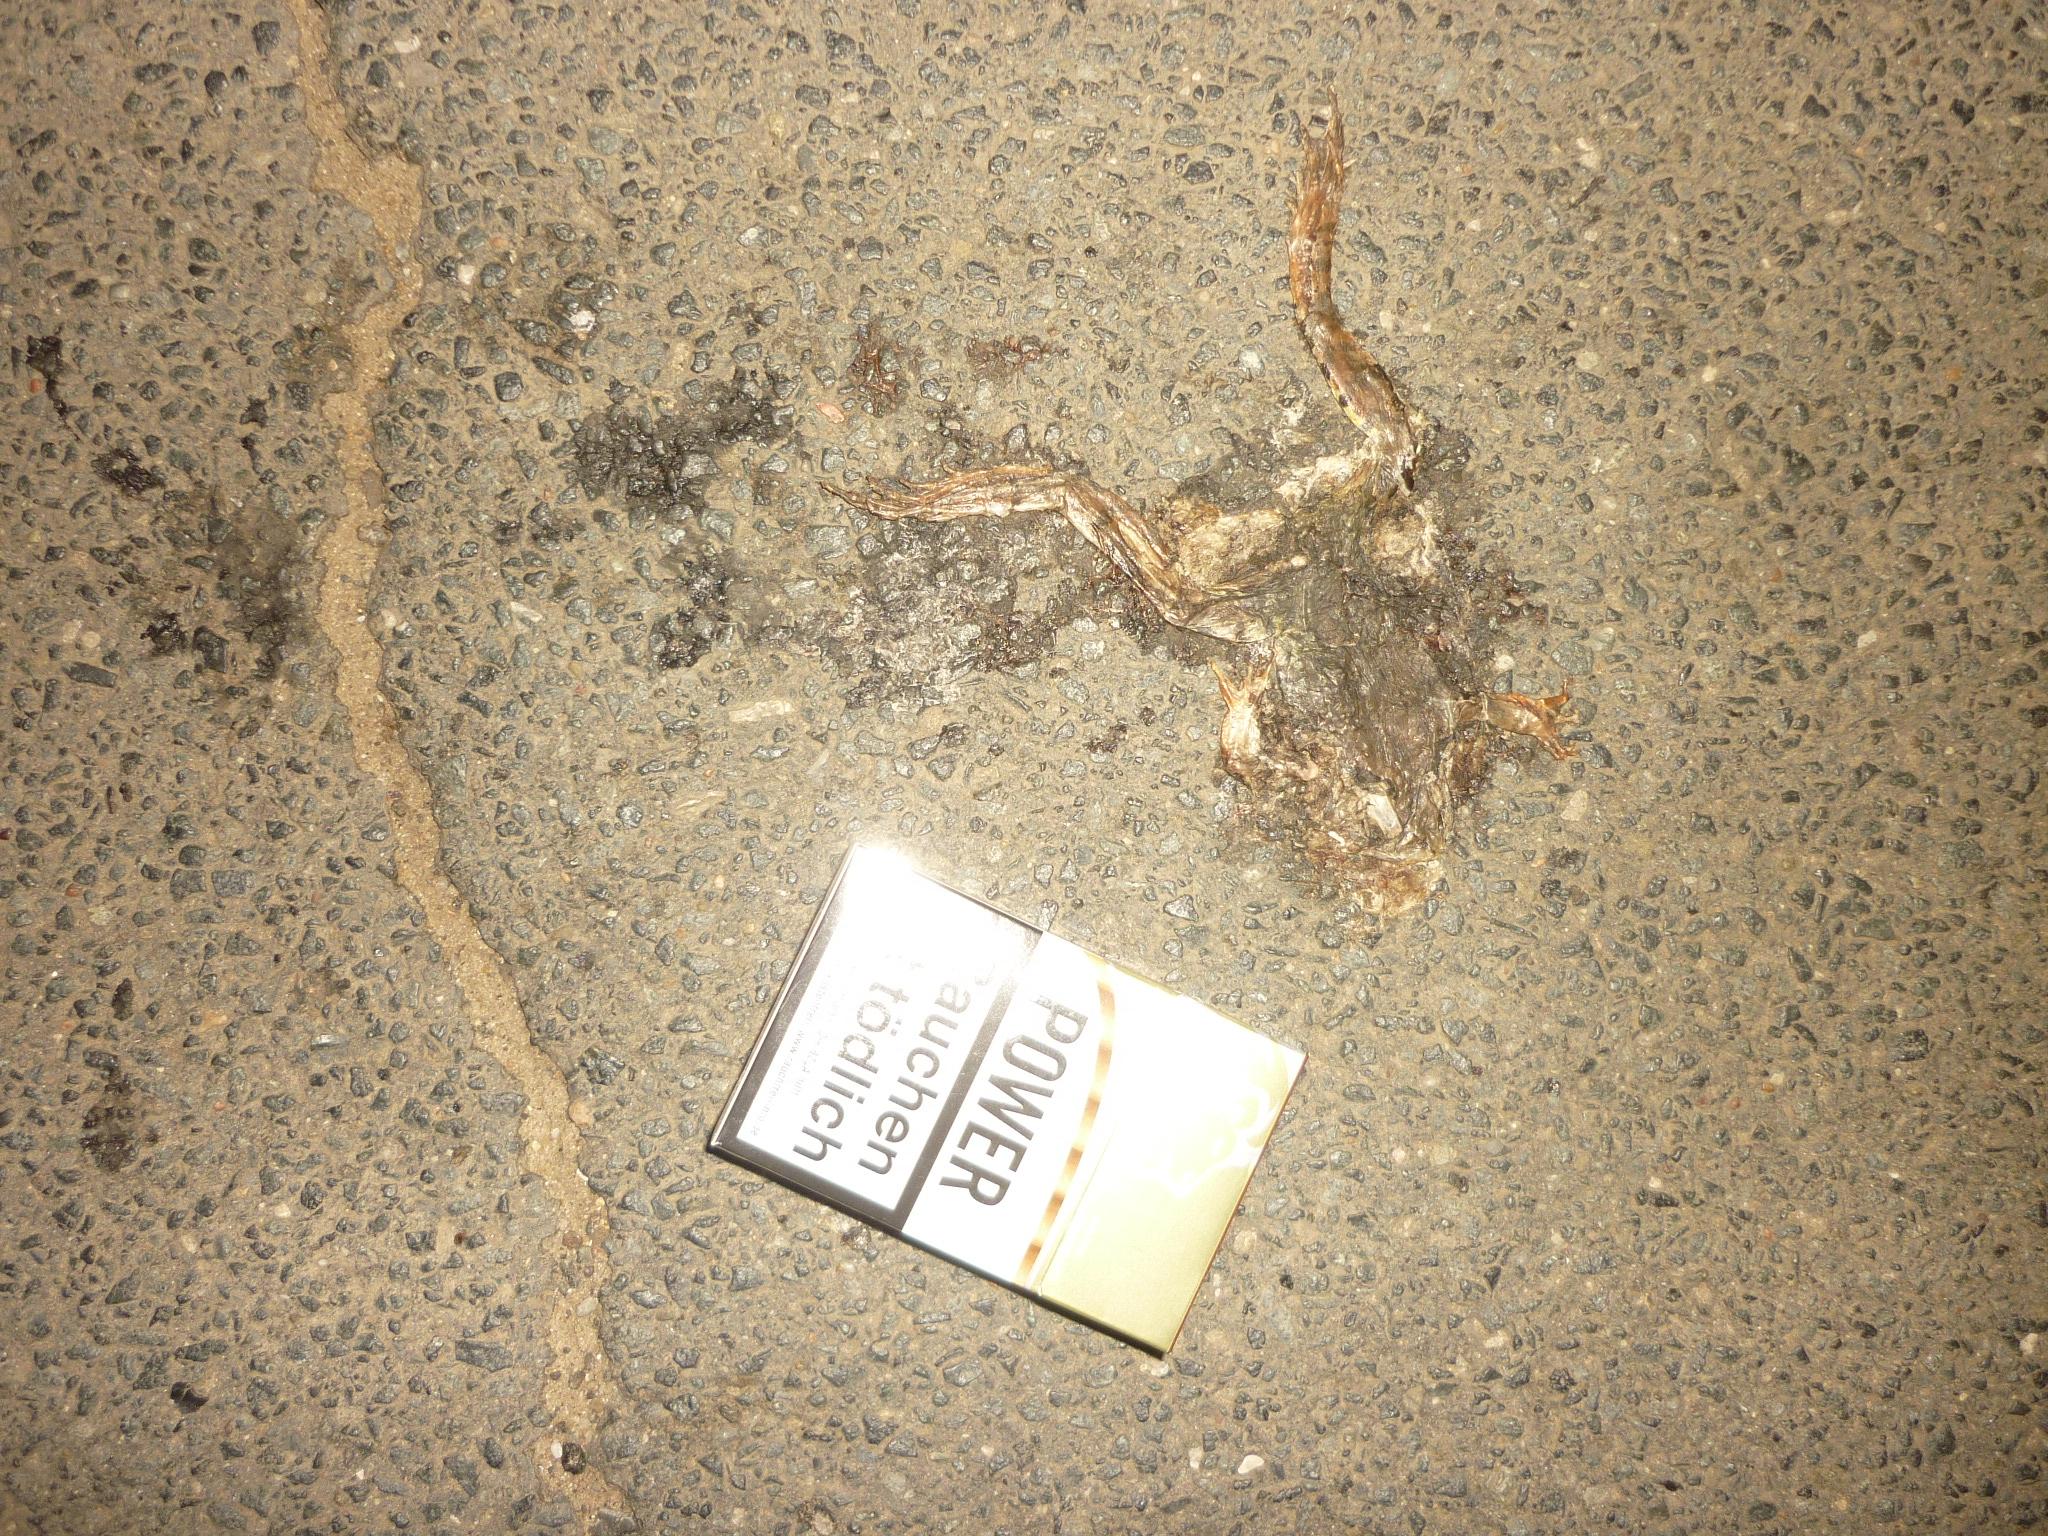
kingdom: Animalia
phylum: Chordata
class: Amphibia
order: Anura
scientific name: Anura
